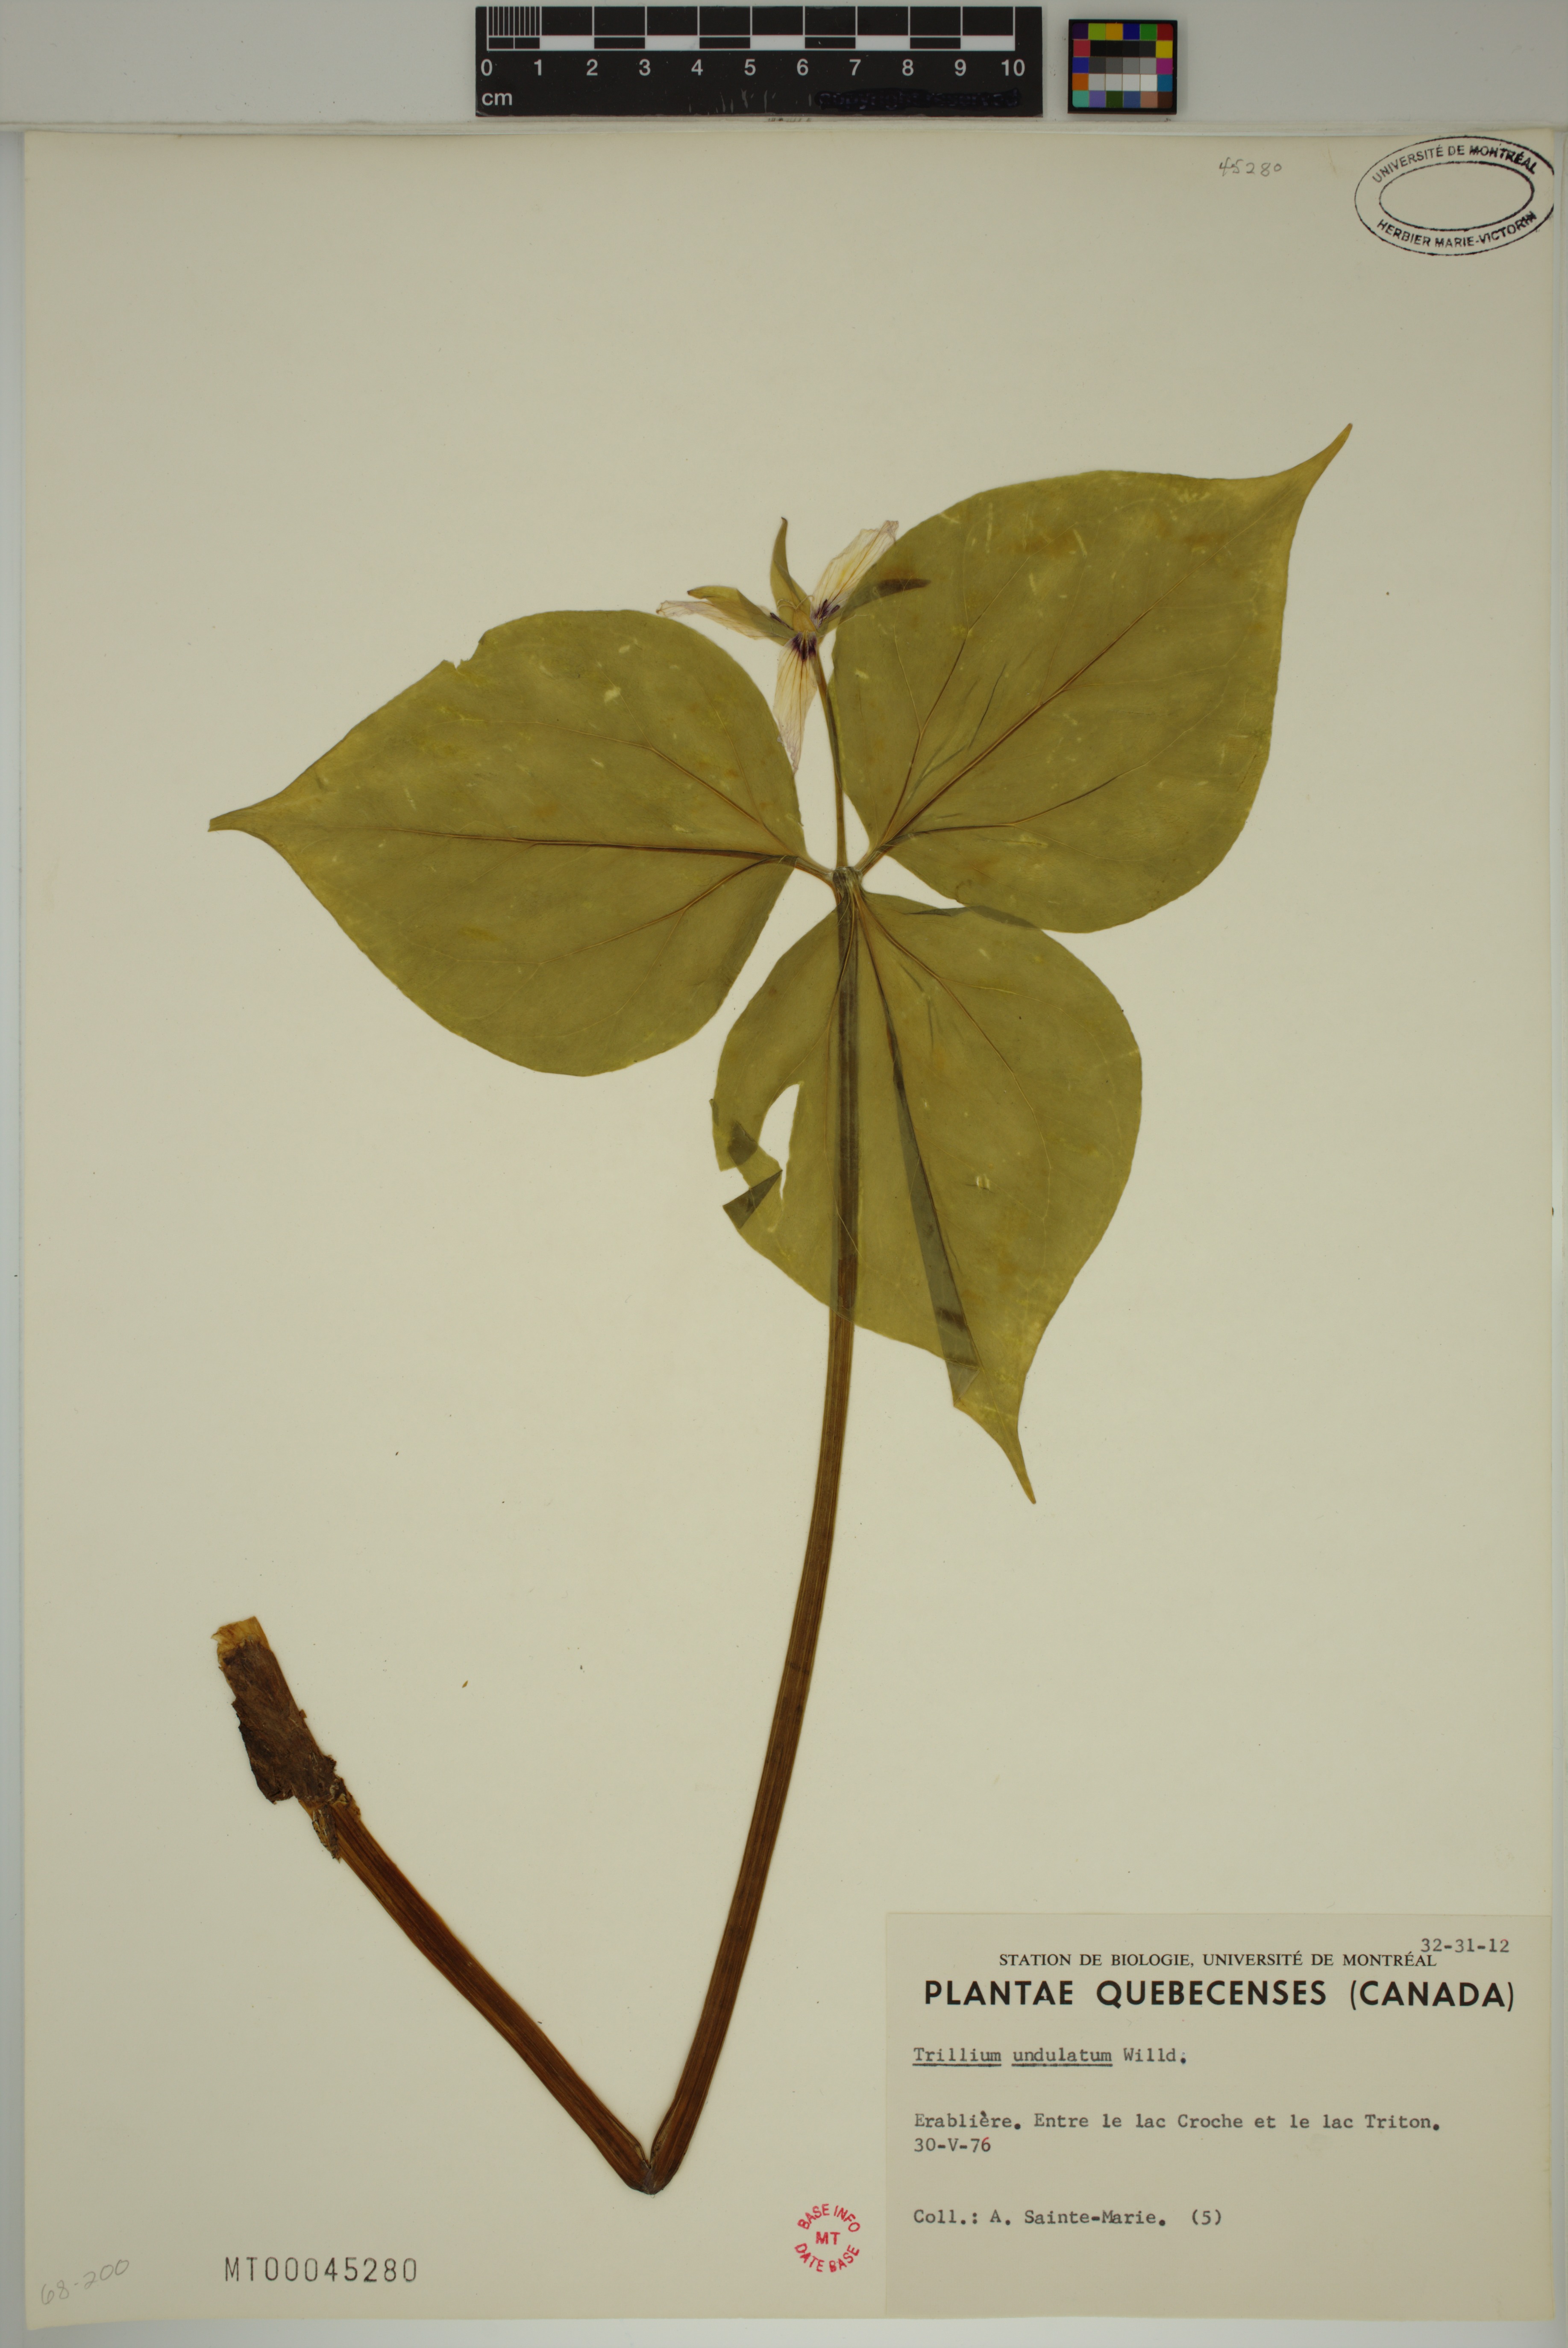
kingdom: Plantae
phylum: Tracheophyta
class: Liliopsida
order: Liliales
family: Melanthiaceae
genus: Trillium
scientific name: Trillium undulatum
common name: Paint trillium
